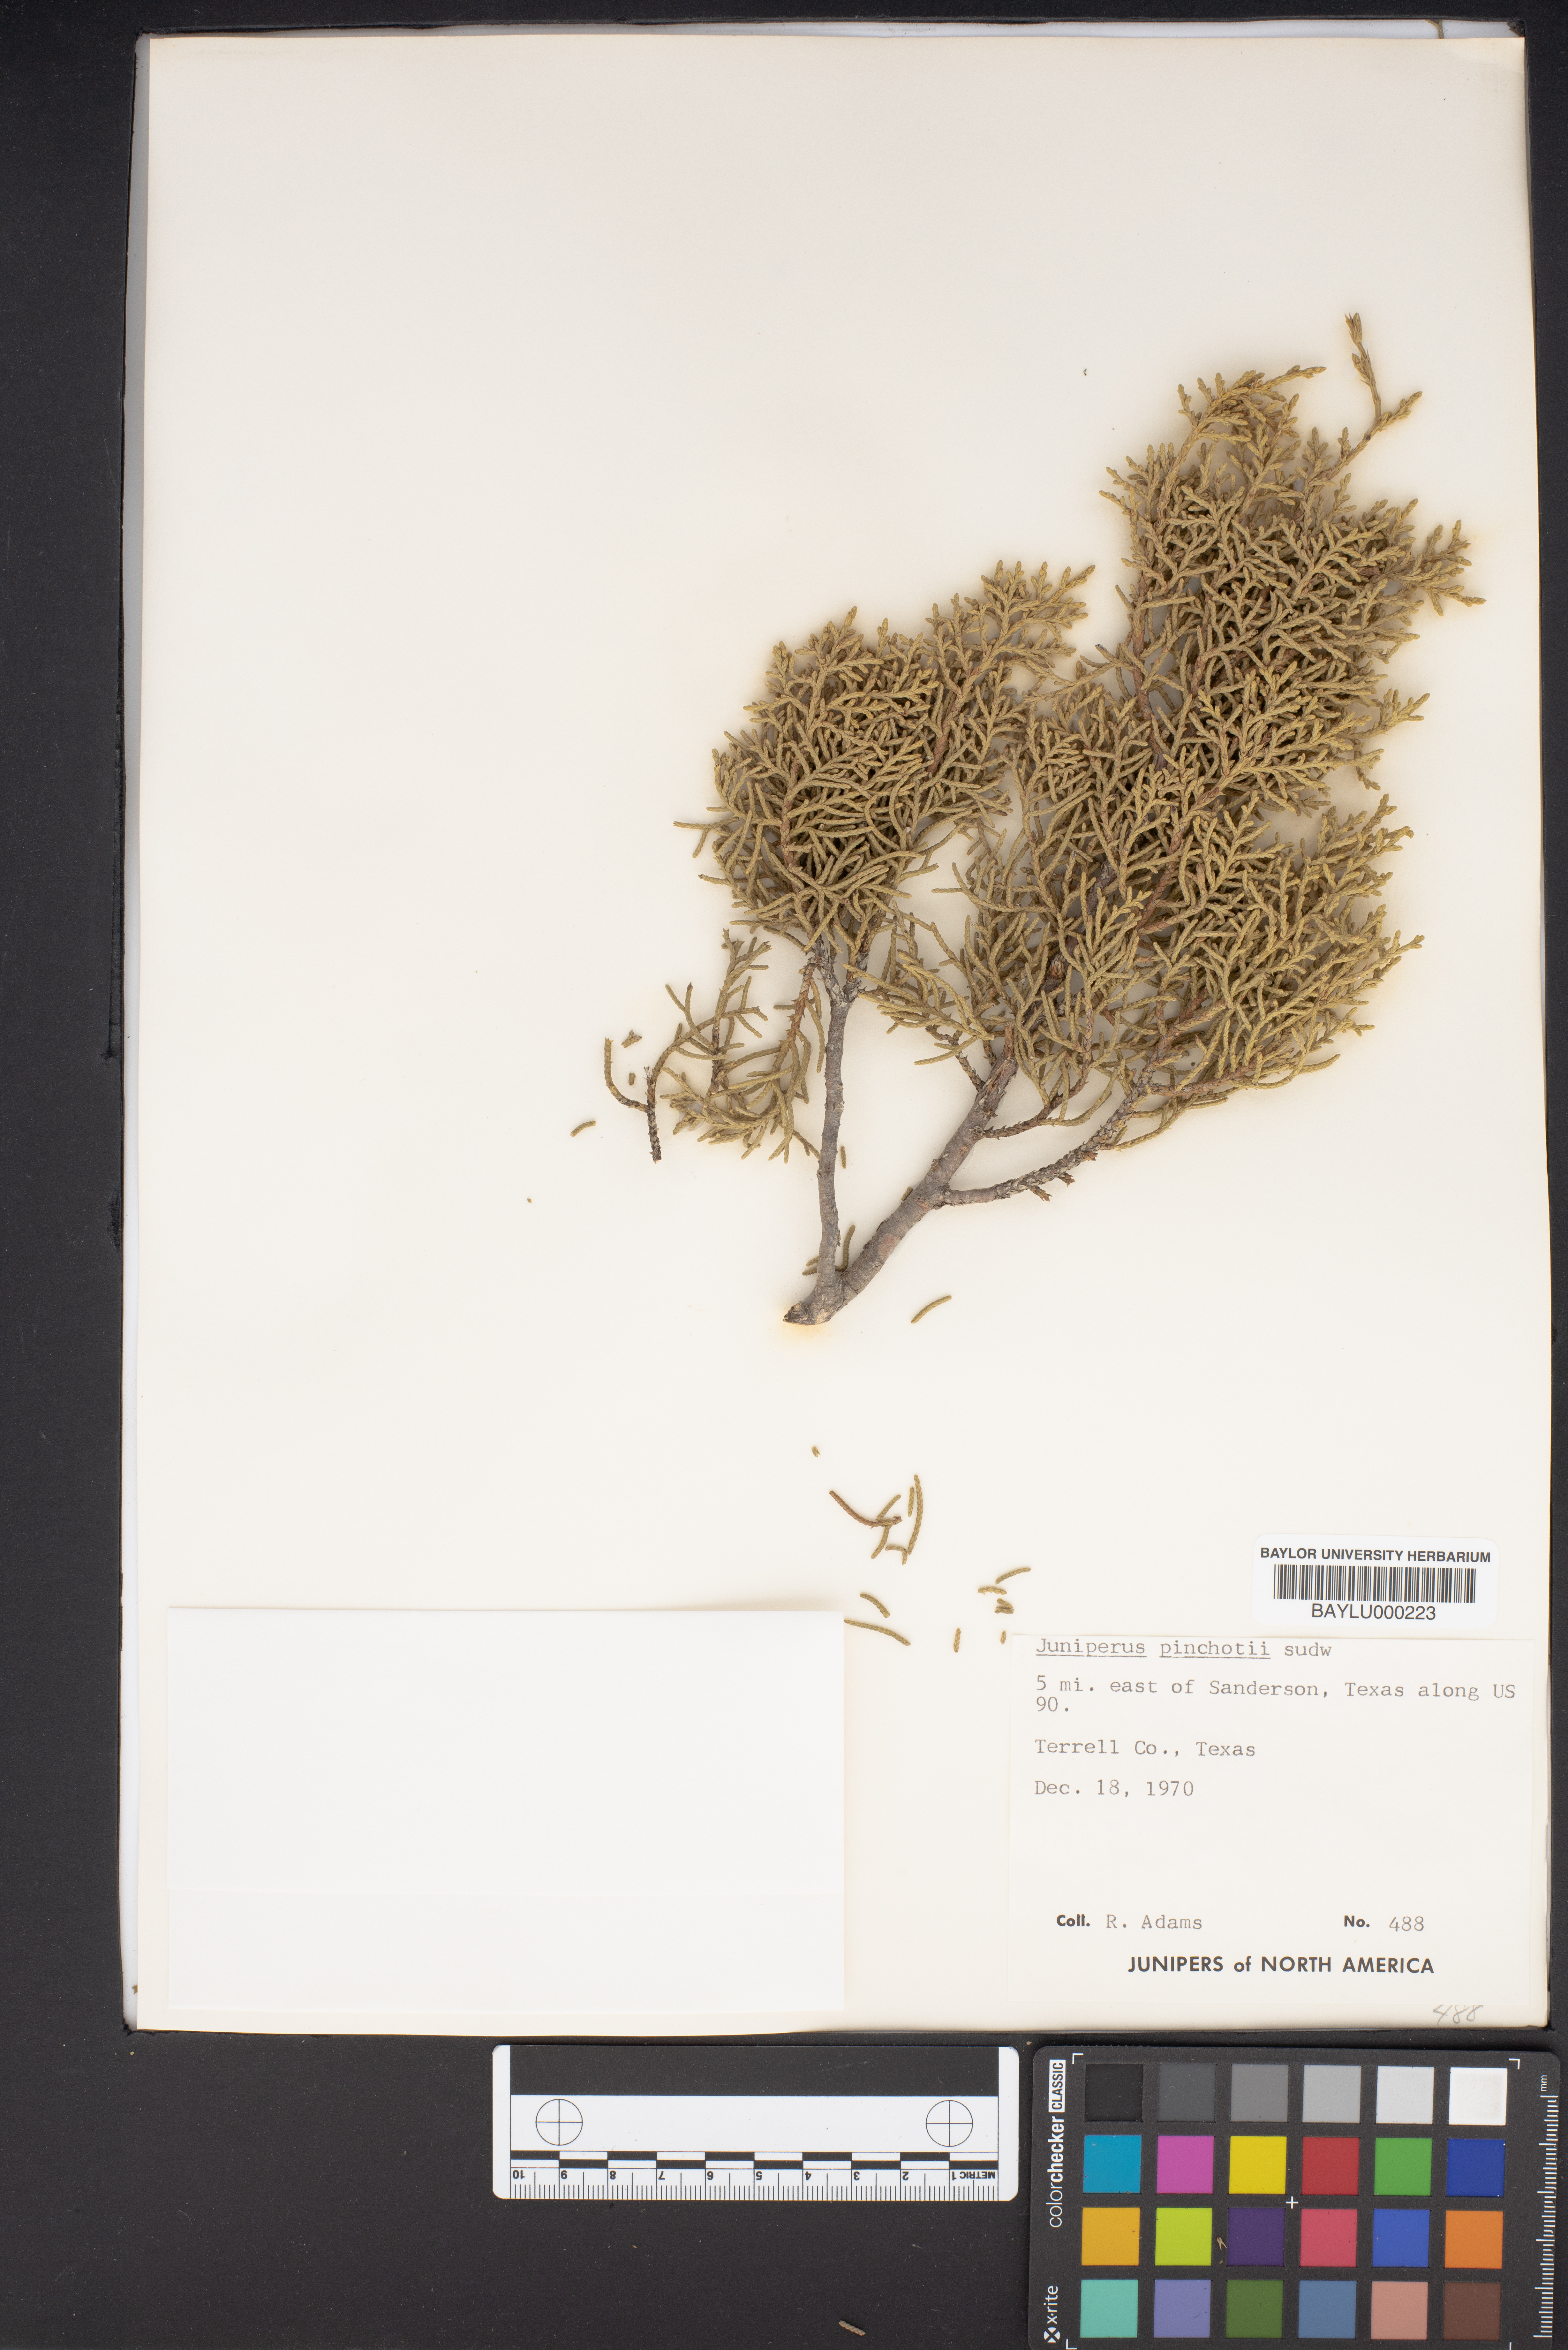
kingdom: Plantae
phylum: Tracheophyta
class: Pinopsida
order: Pinales
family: Cupressaceae
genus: Juniperus
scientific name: Juniperus pinchotii
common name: Pinchot juniper
